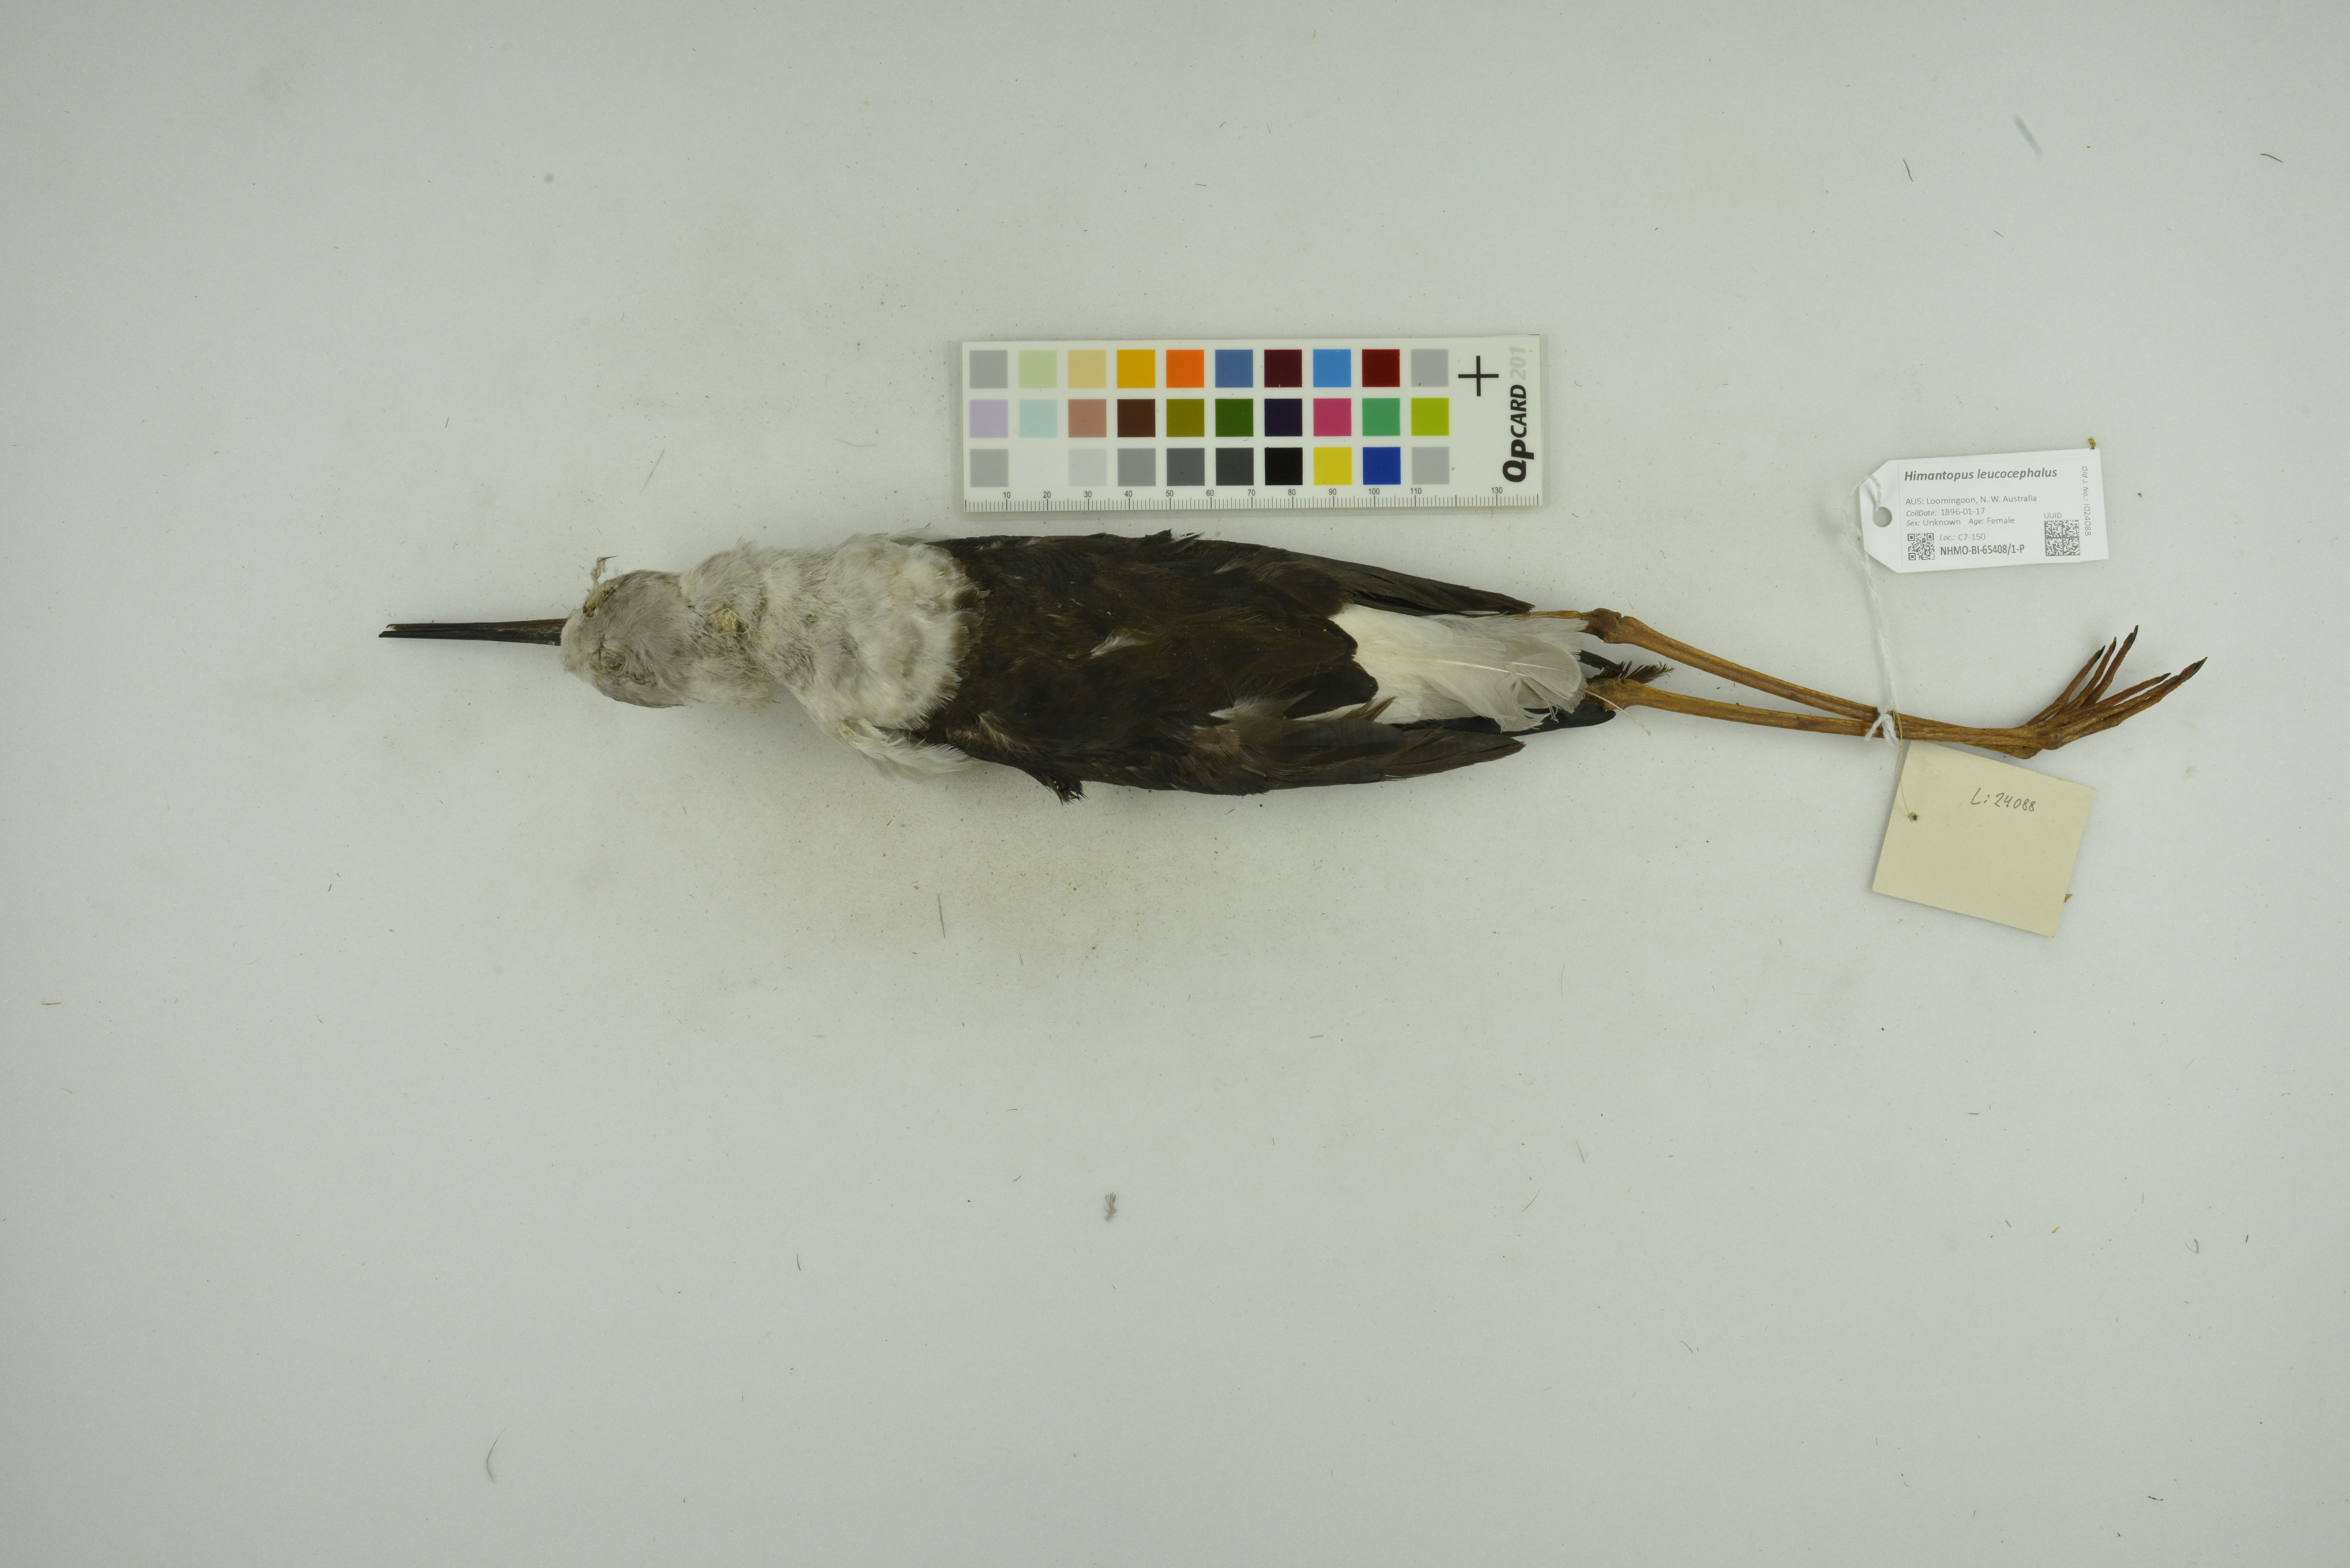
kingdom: Animalia
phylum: Chordata
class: Aves
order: Charadriiformes
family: Recurvirostridae
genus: Himantopus
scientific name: Himantopus leucocephalus
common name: White-headed stilt
